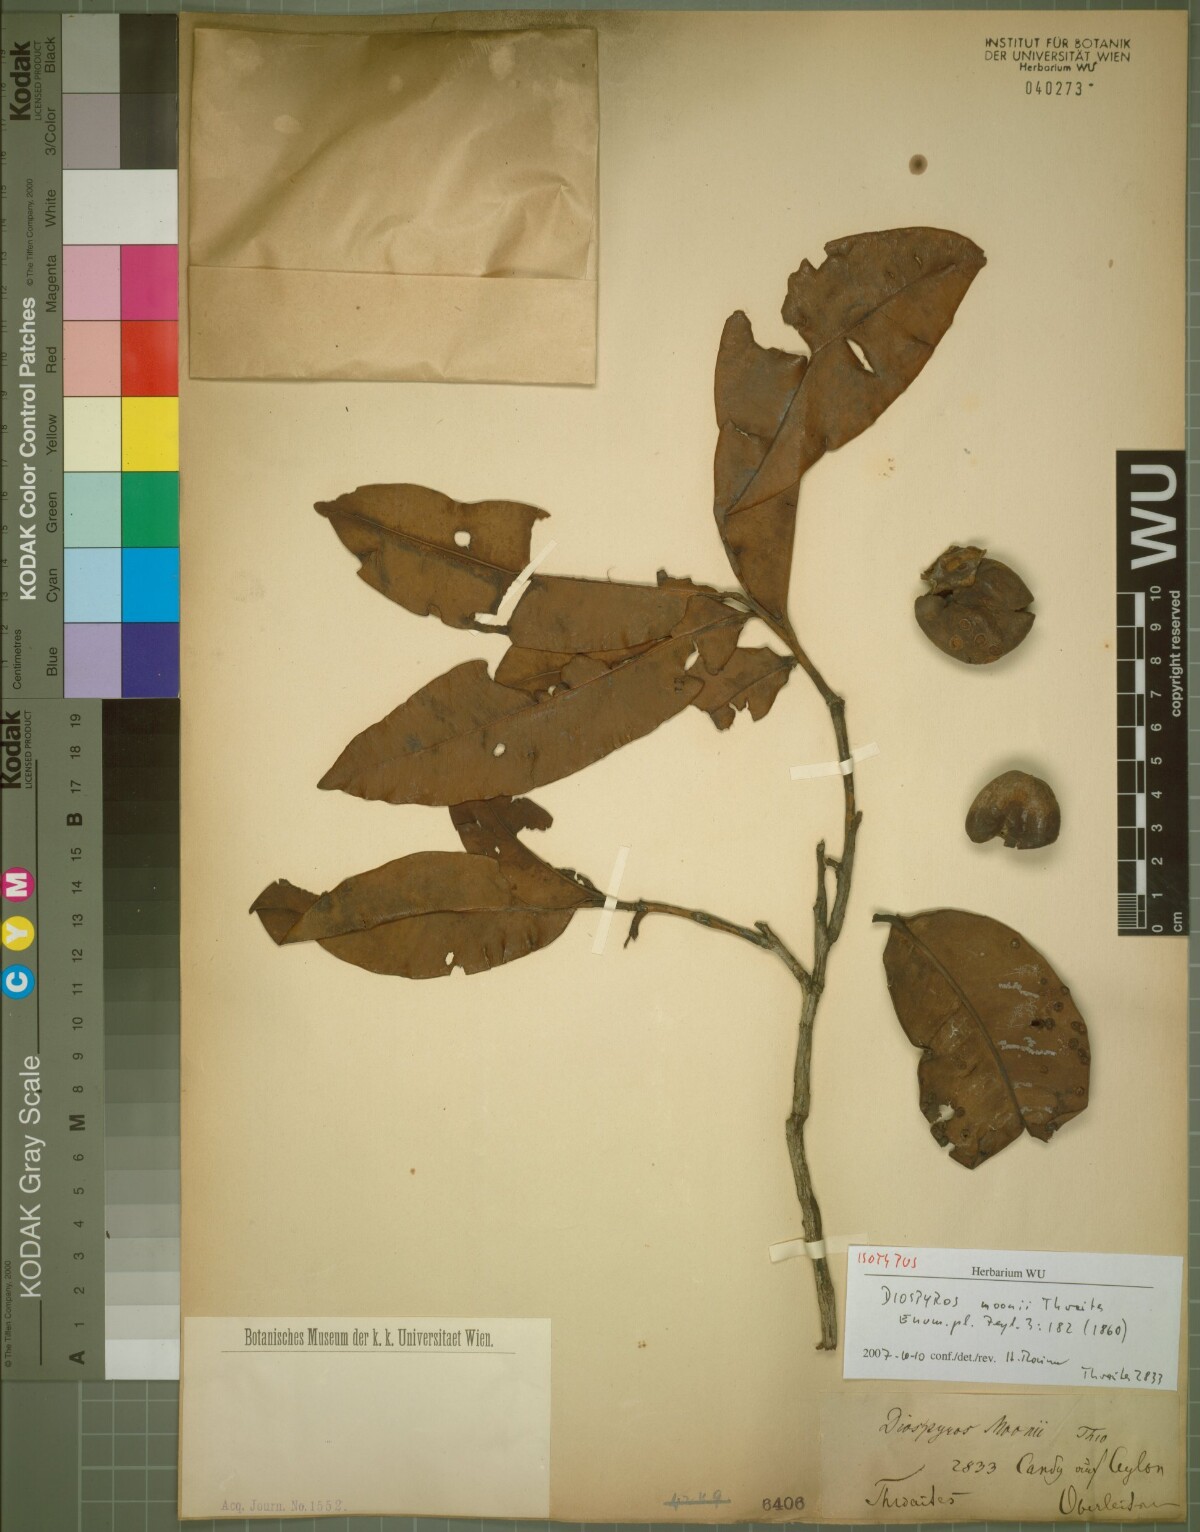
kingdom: Plantae
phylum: Tracheophyta
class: Magnoliopsida
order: Ericales
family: Ebenaceae
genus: Diospyros
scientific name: Diospyros moonii
